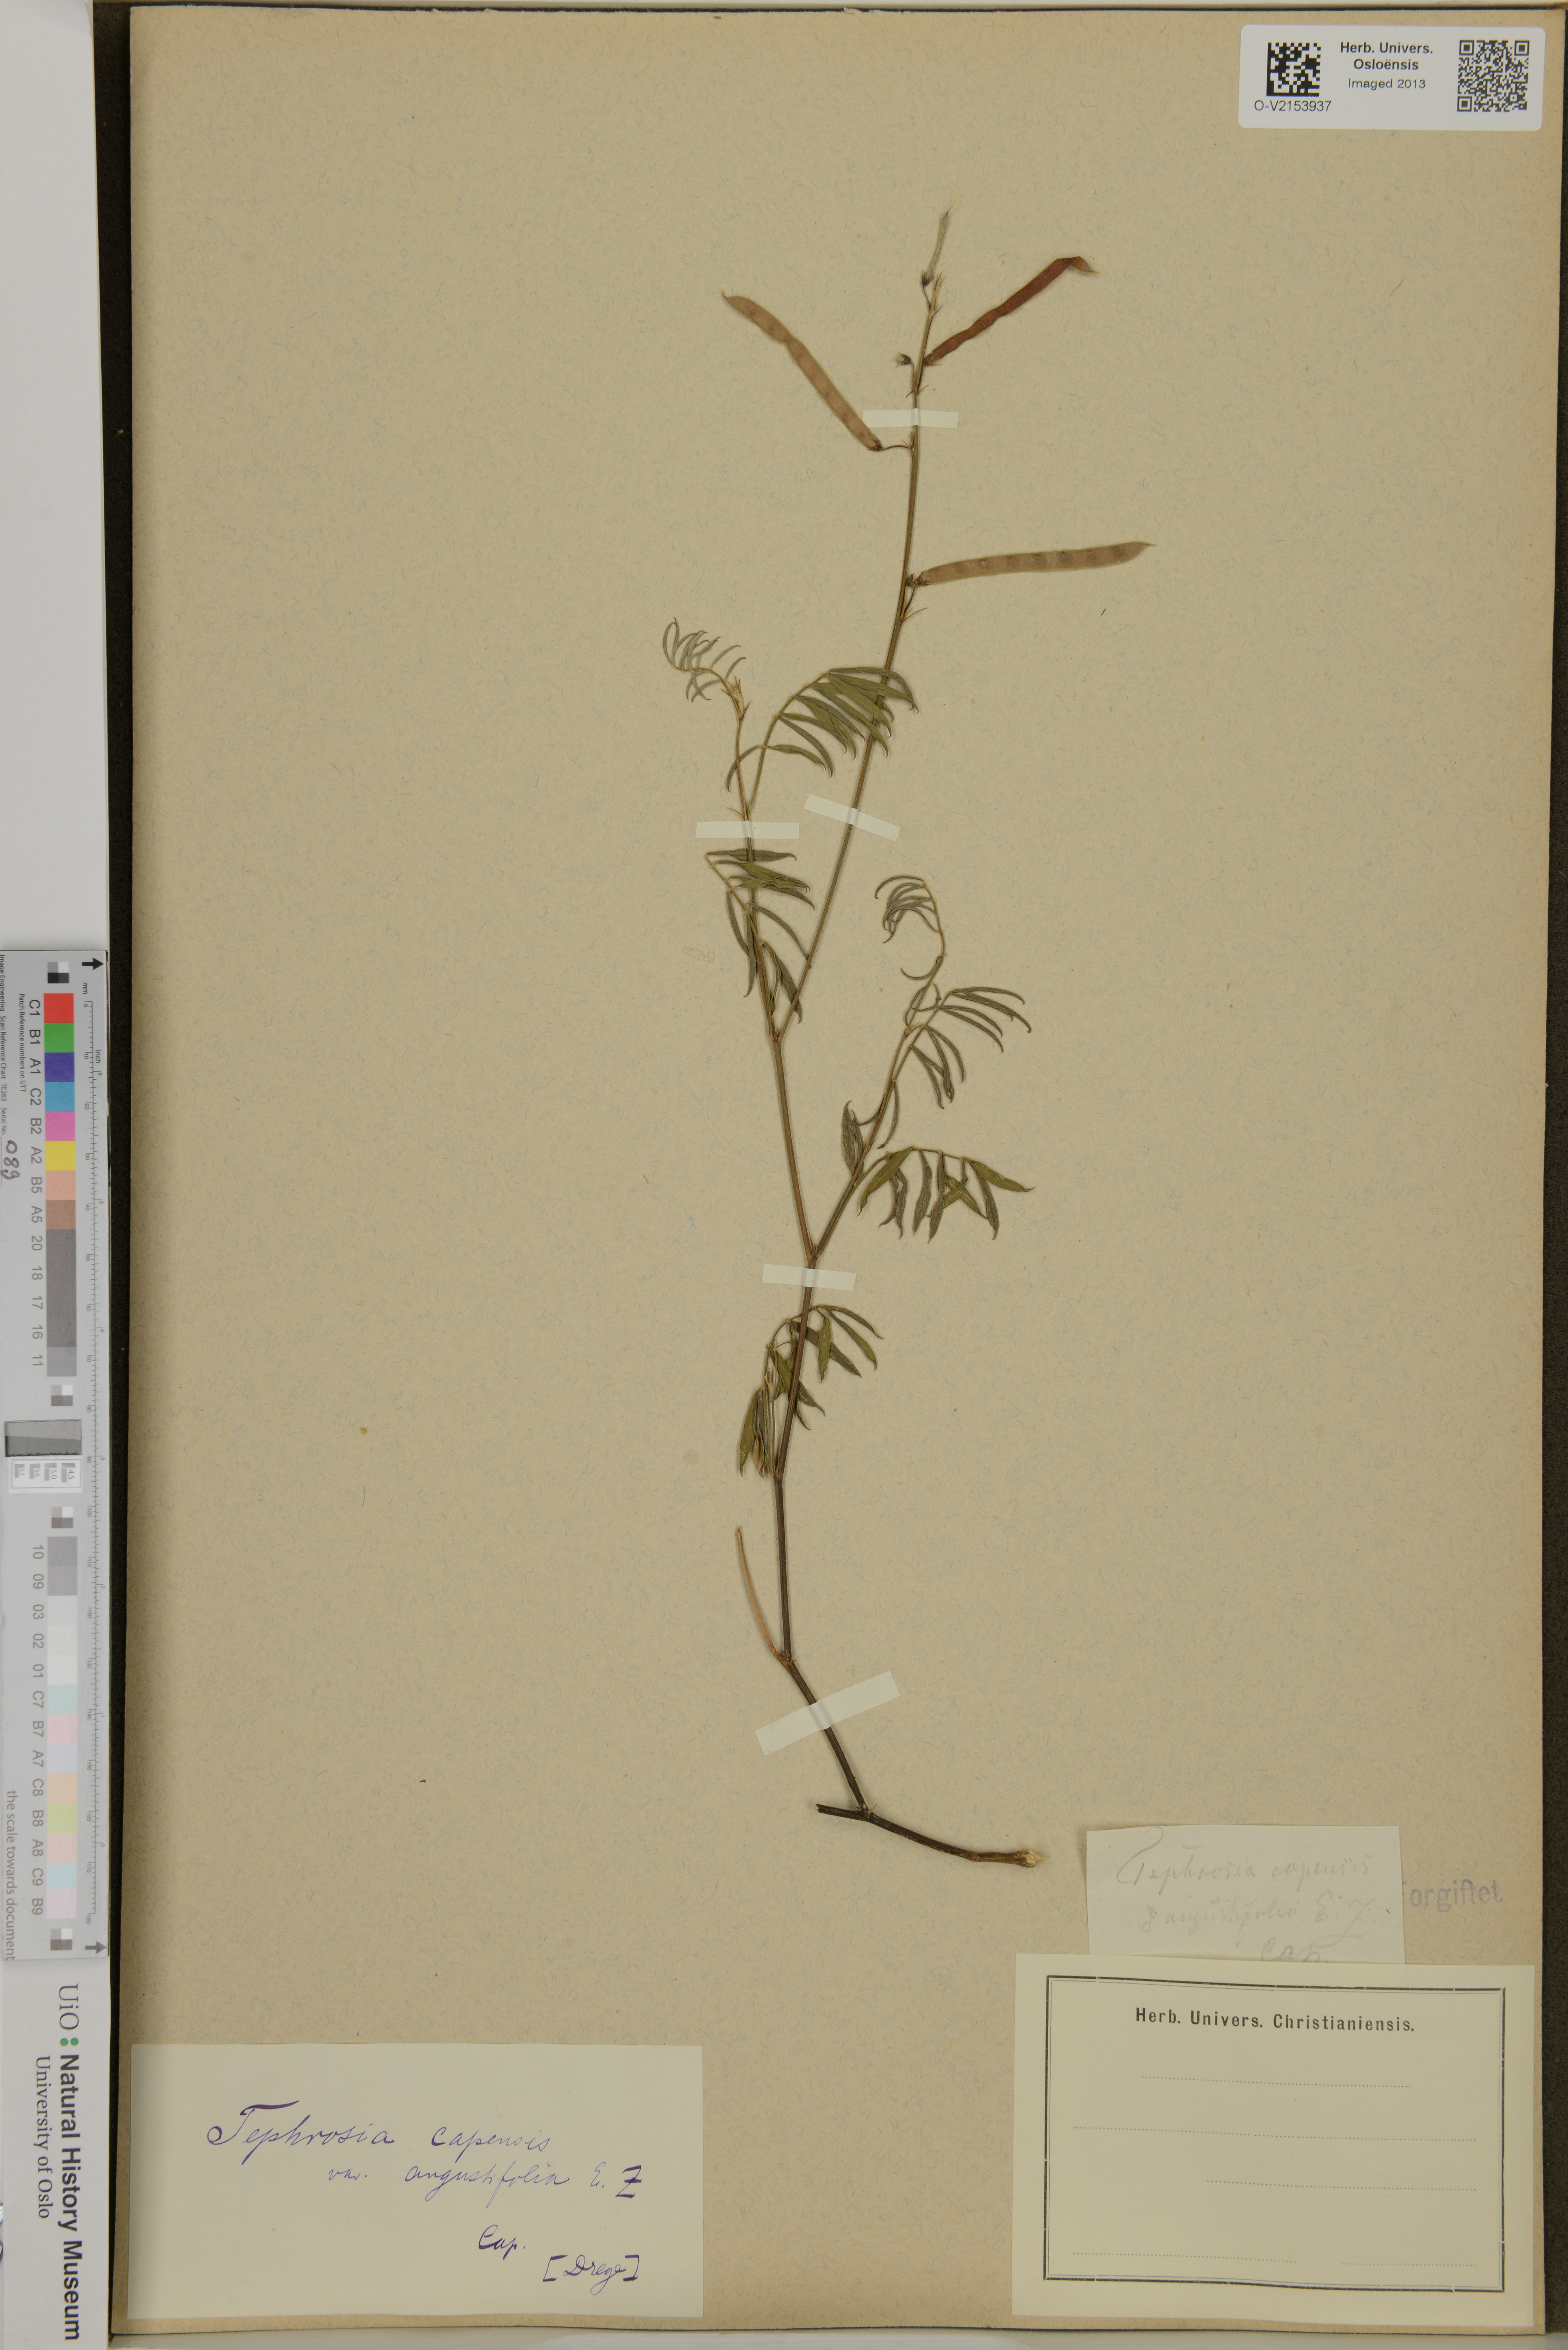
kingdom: Plantae
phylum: Tracheophyta
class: Magnoliopsida
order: Fabales
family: Fabaceae
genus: Tephrosia
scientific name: Tephrosia capensis
